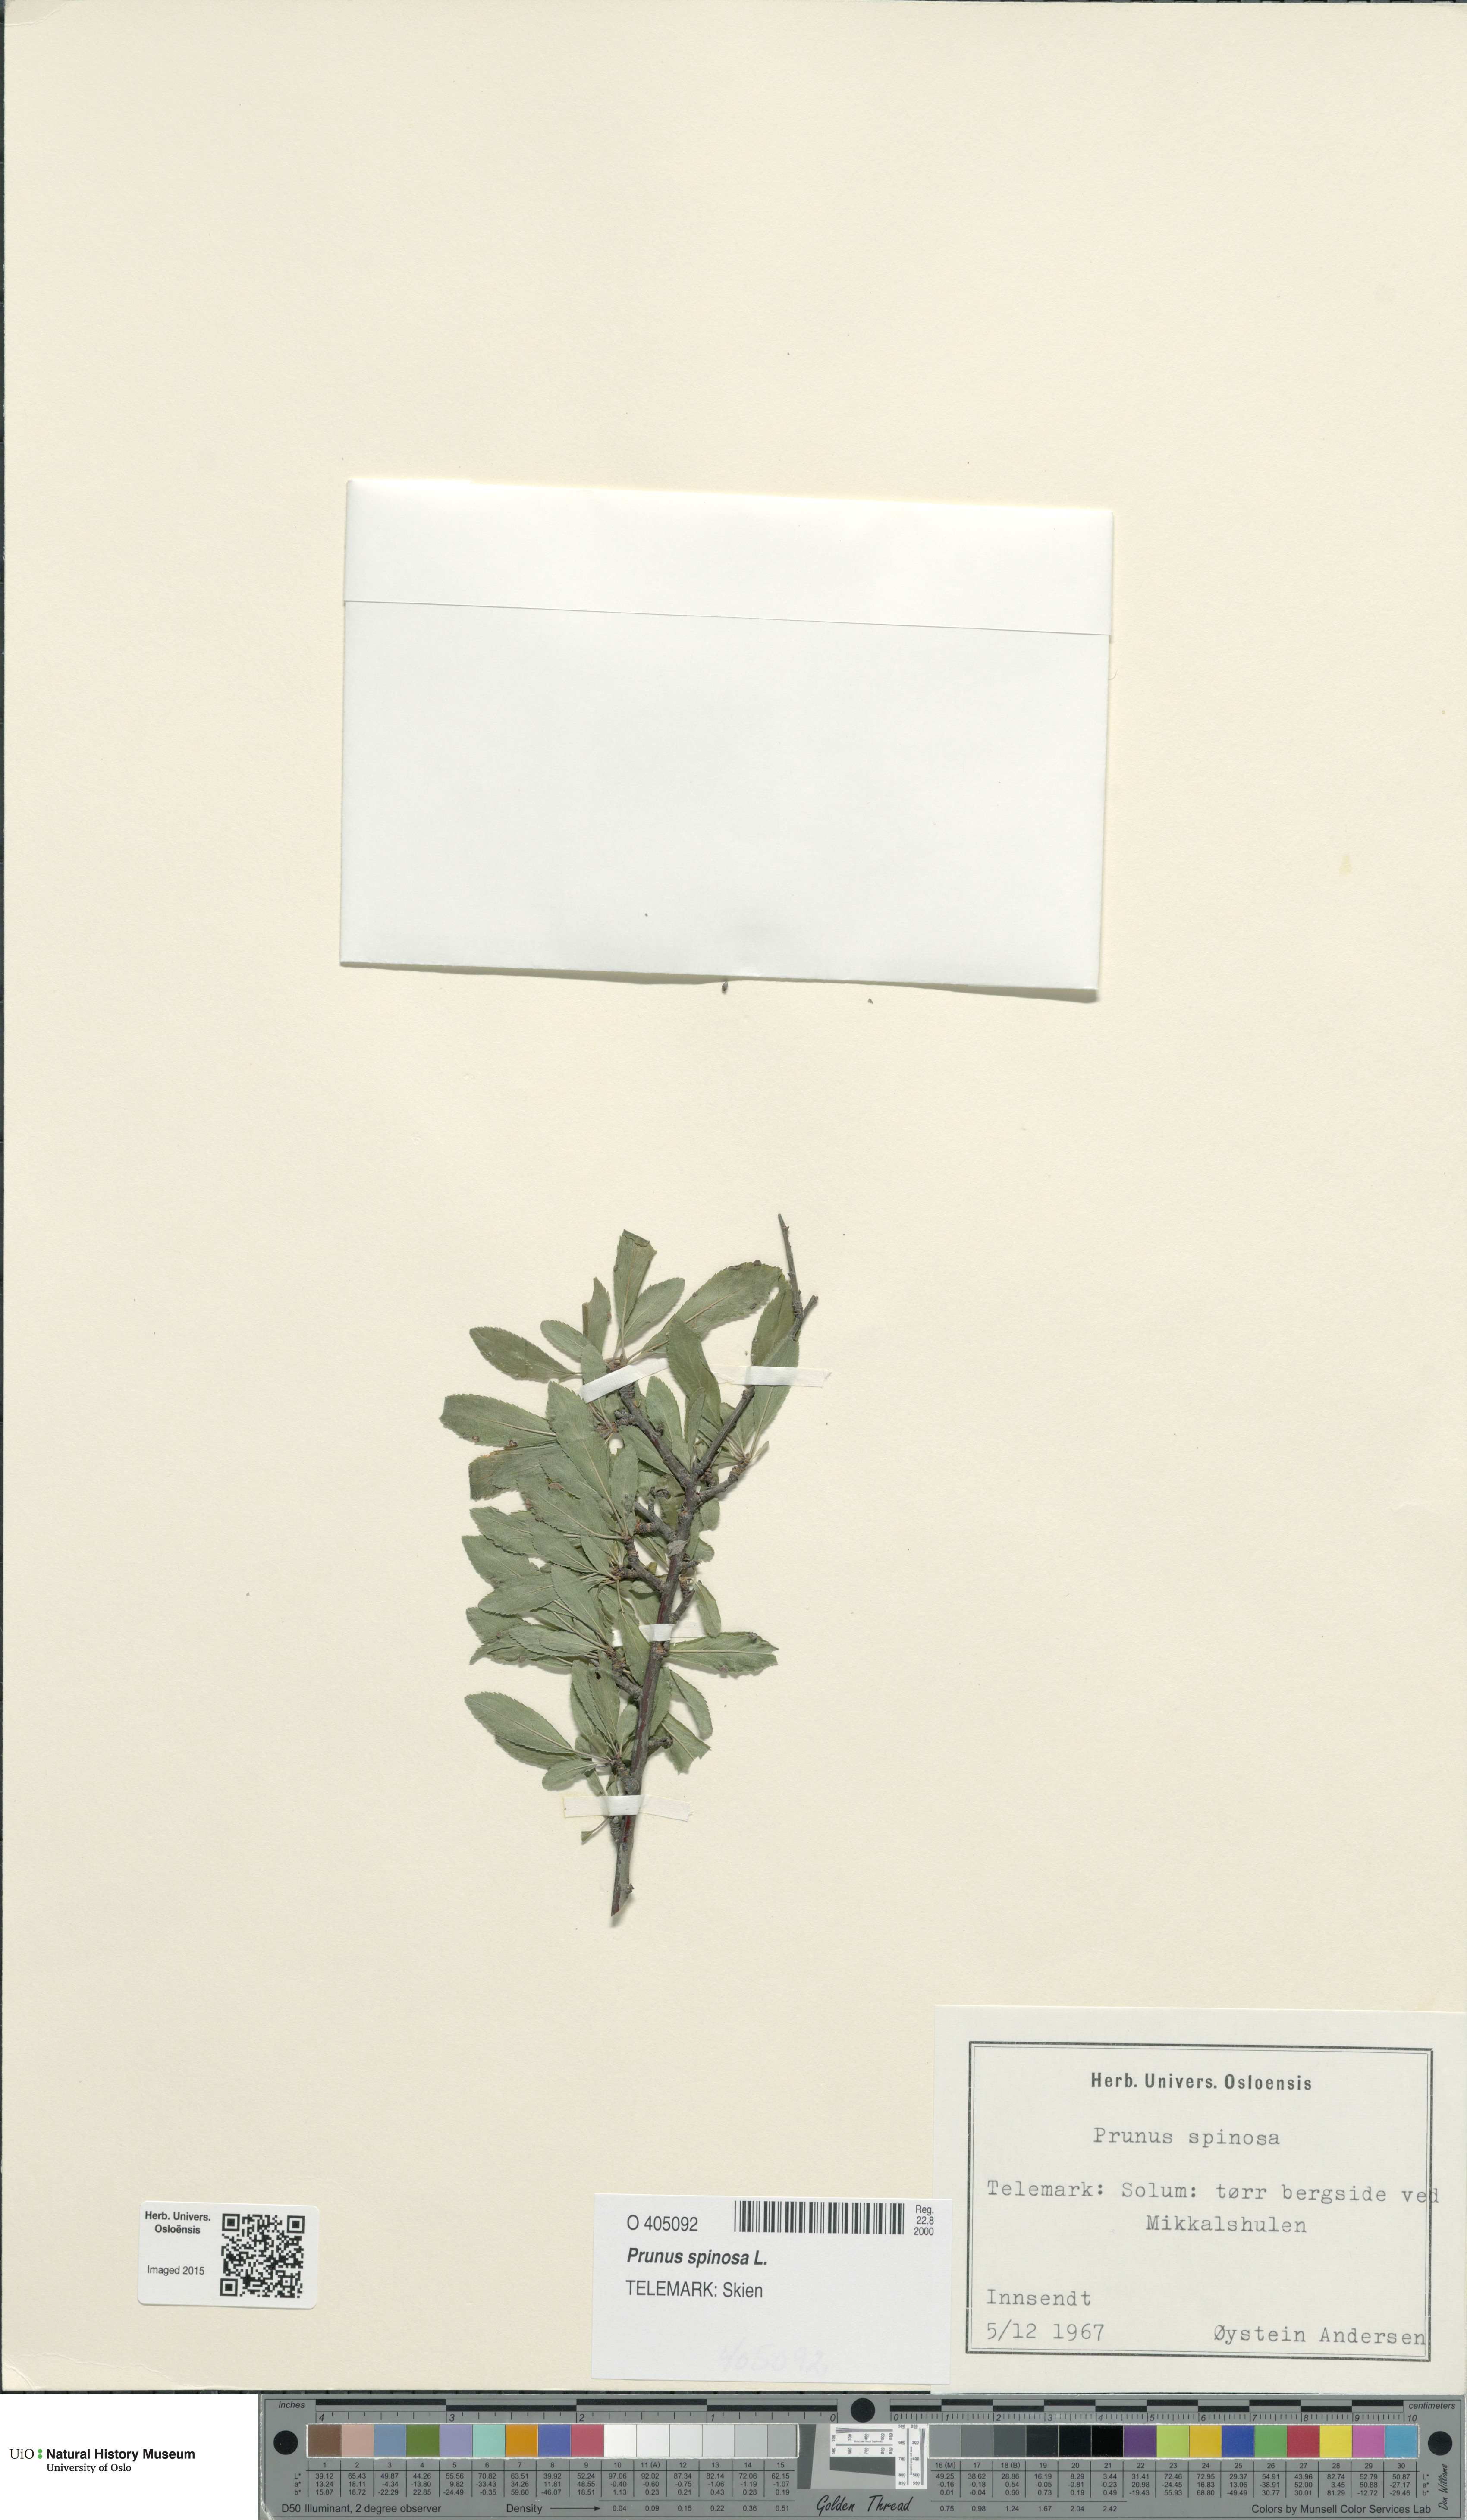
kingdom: Plantae
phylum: Tracheophyta
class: Magnoliopsida
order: Rosales
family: Rosaceae
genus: Prunus
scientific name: Prunus spinosa
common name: Blackthorn
